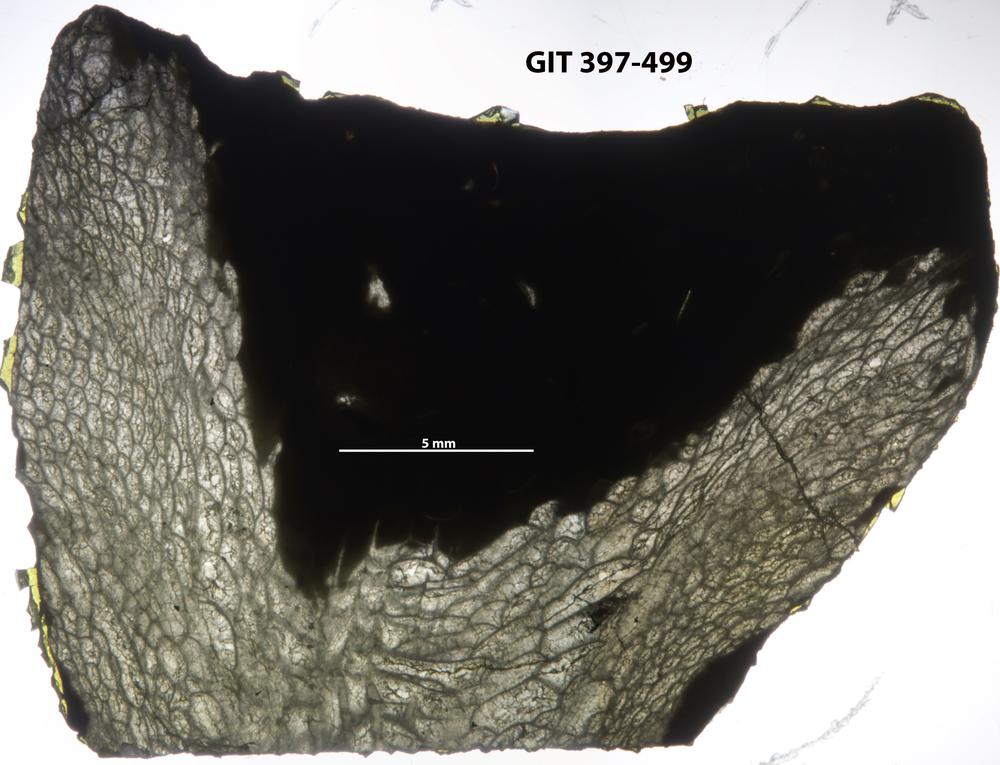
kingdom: Animalia
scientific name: Animalia
